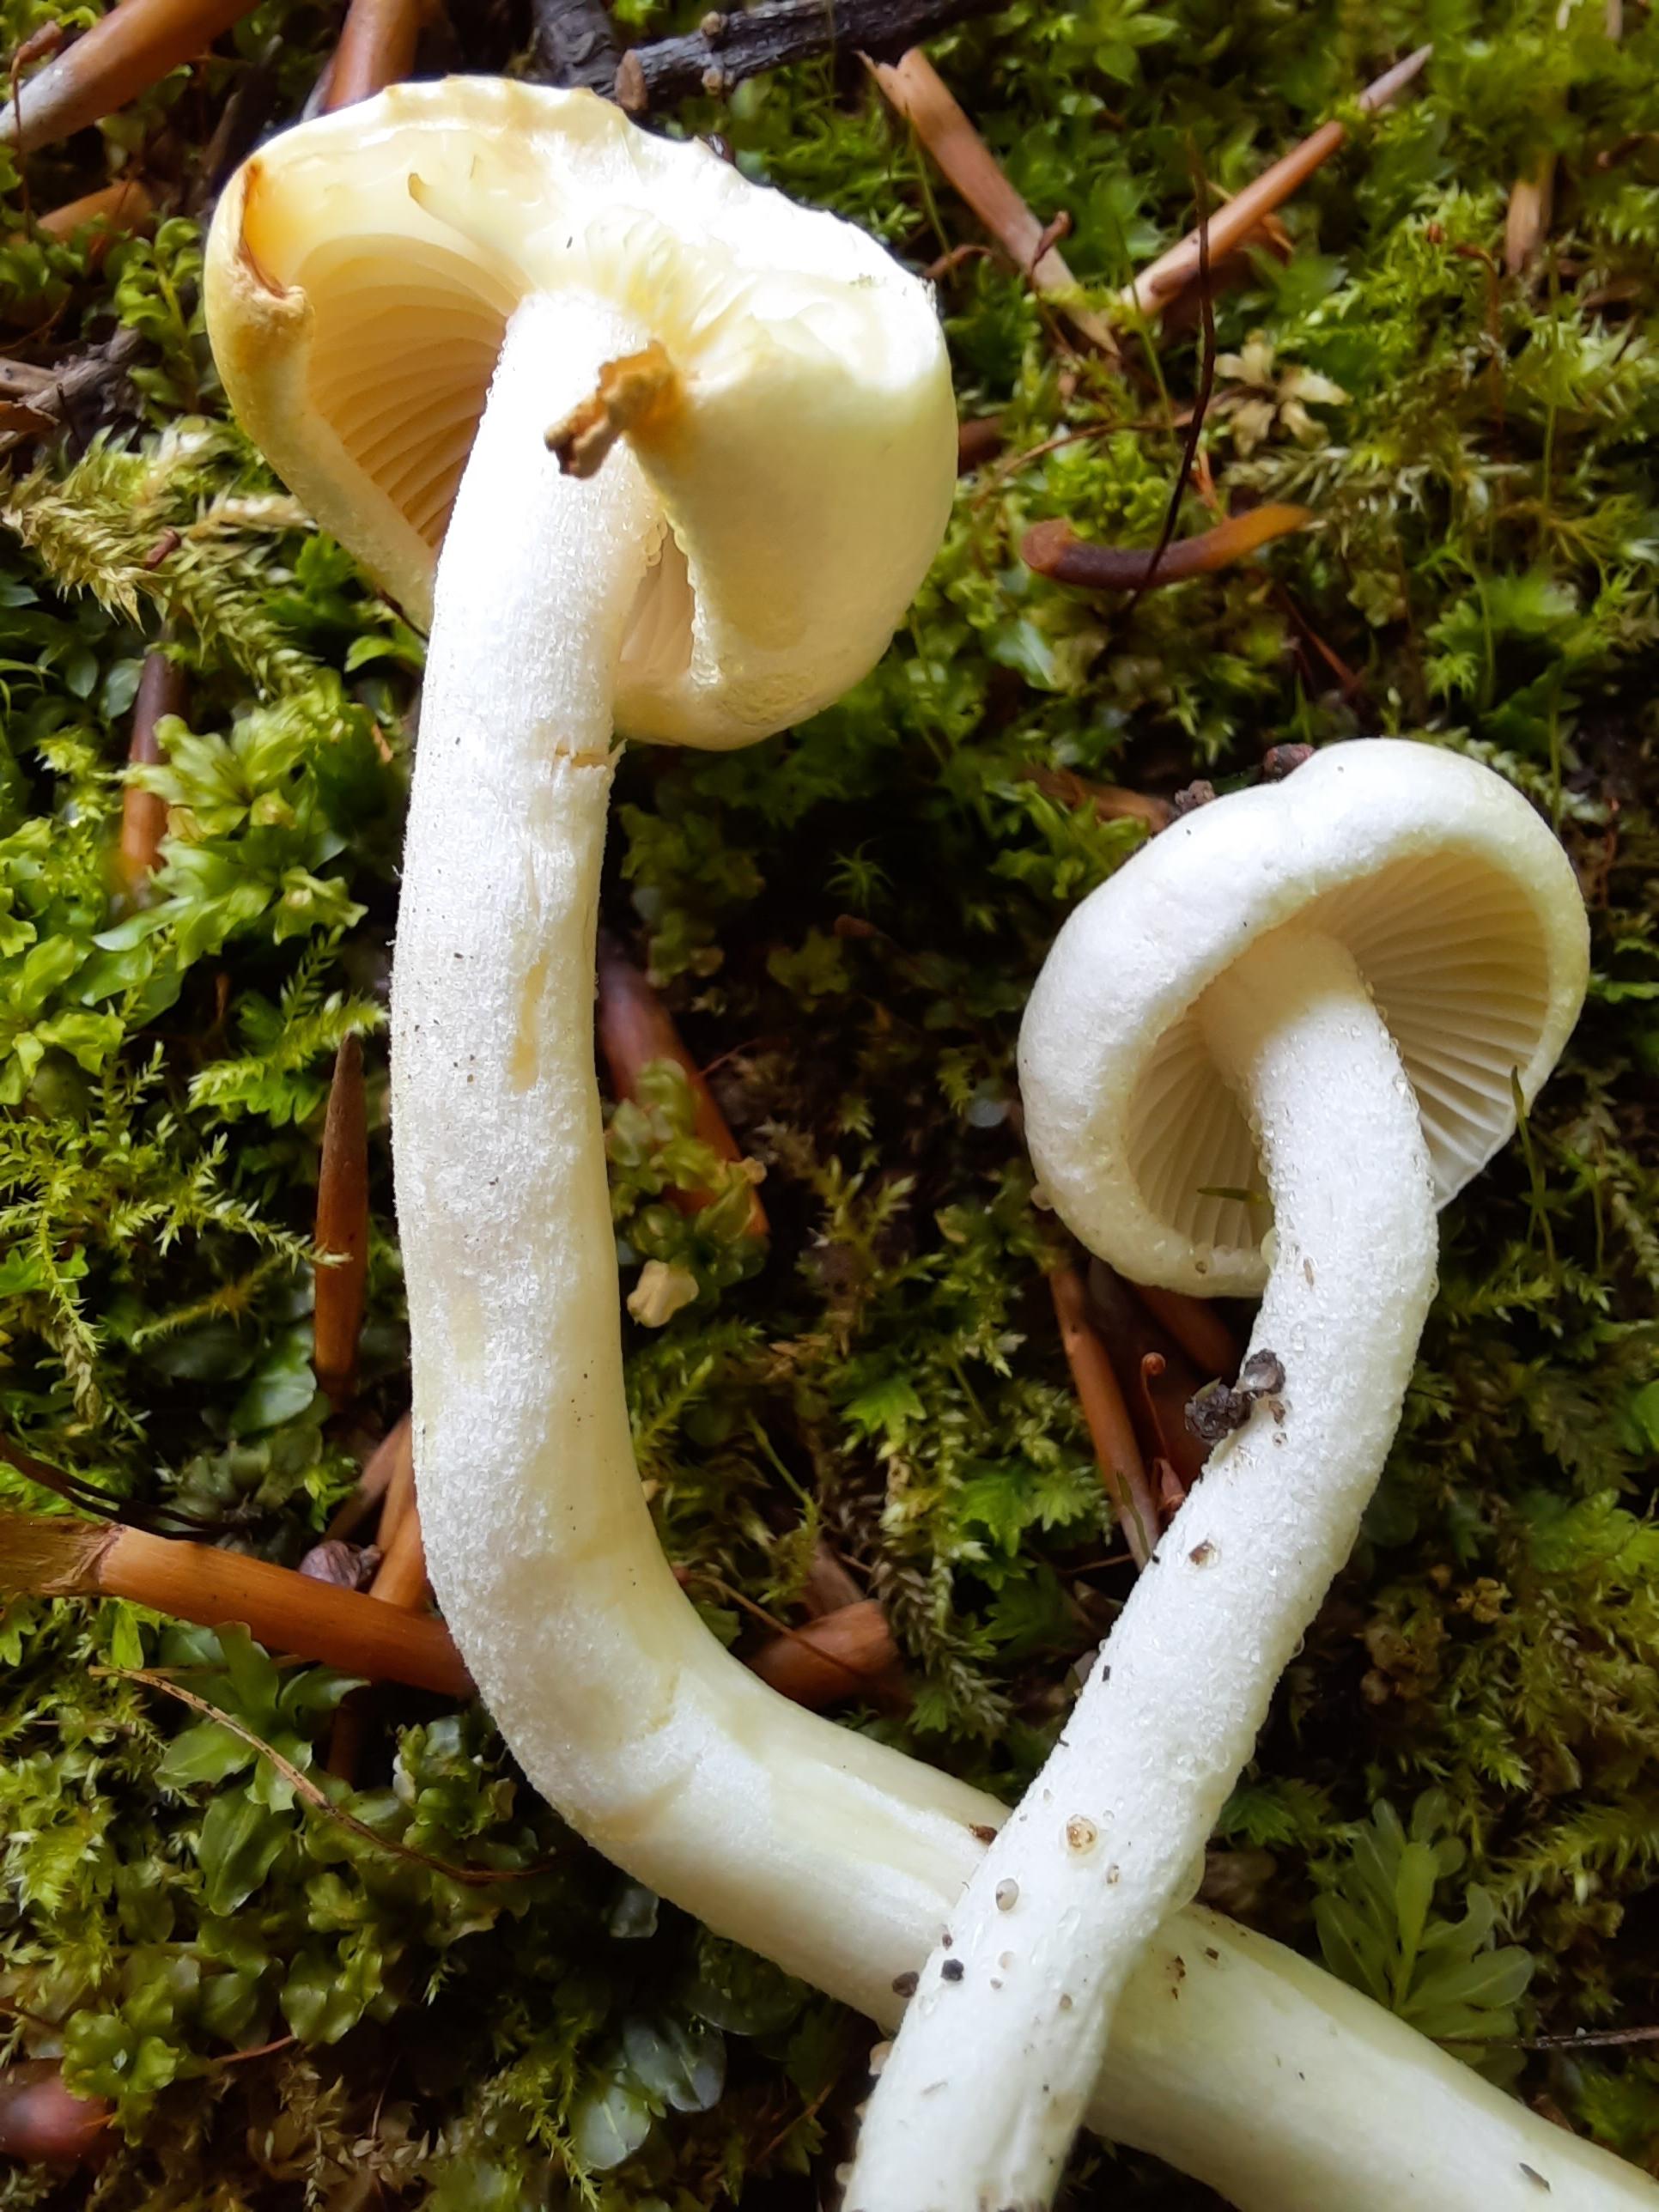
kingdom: Fungi
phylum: Basidiomycota
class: Agaricomycetes
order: Agaricales
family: Hygrophoraceae
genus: Hygrophorus
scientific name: Hygrophorus discoxanthus
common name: ildelugtende sneglehat
